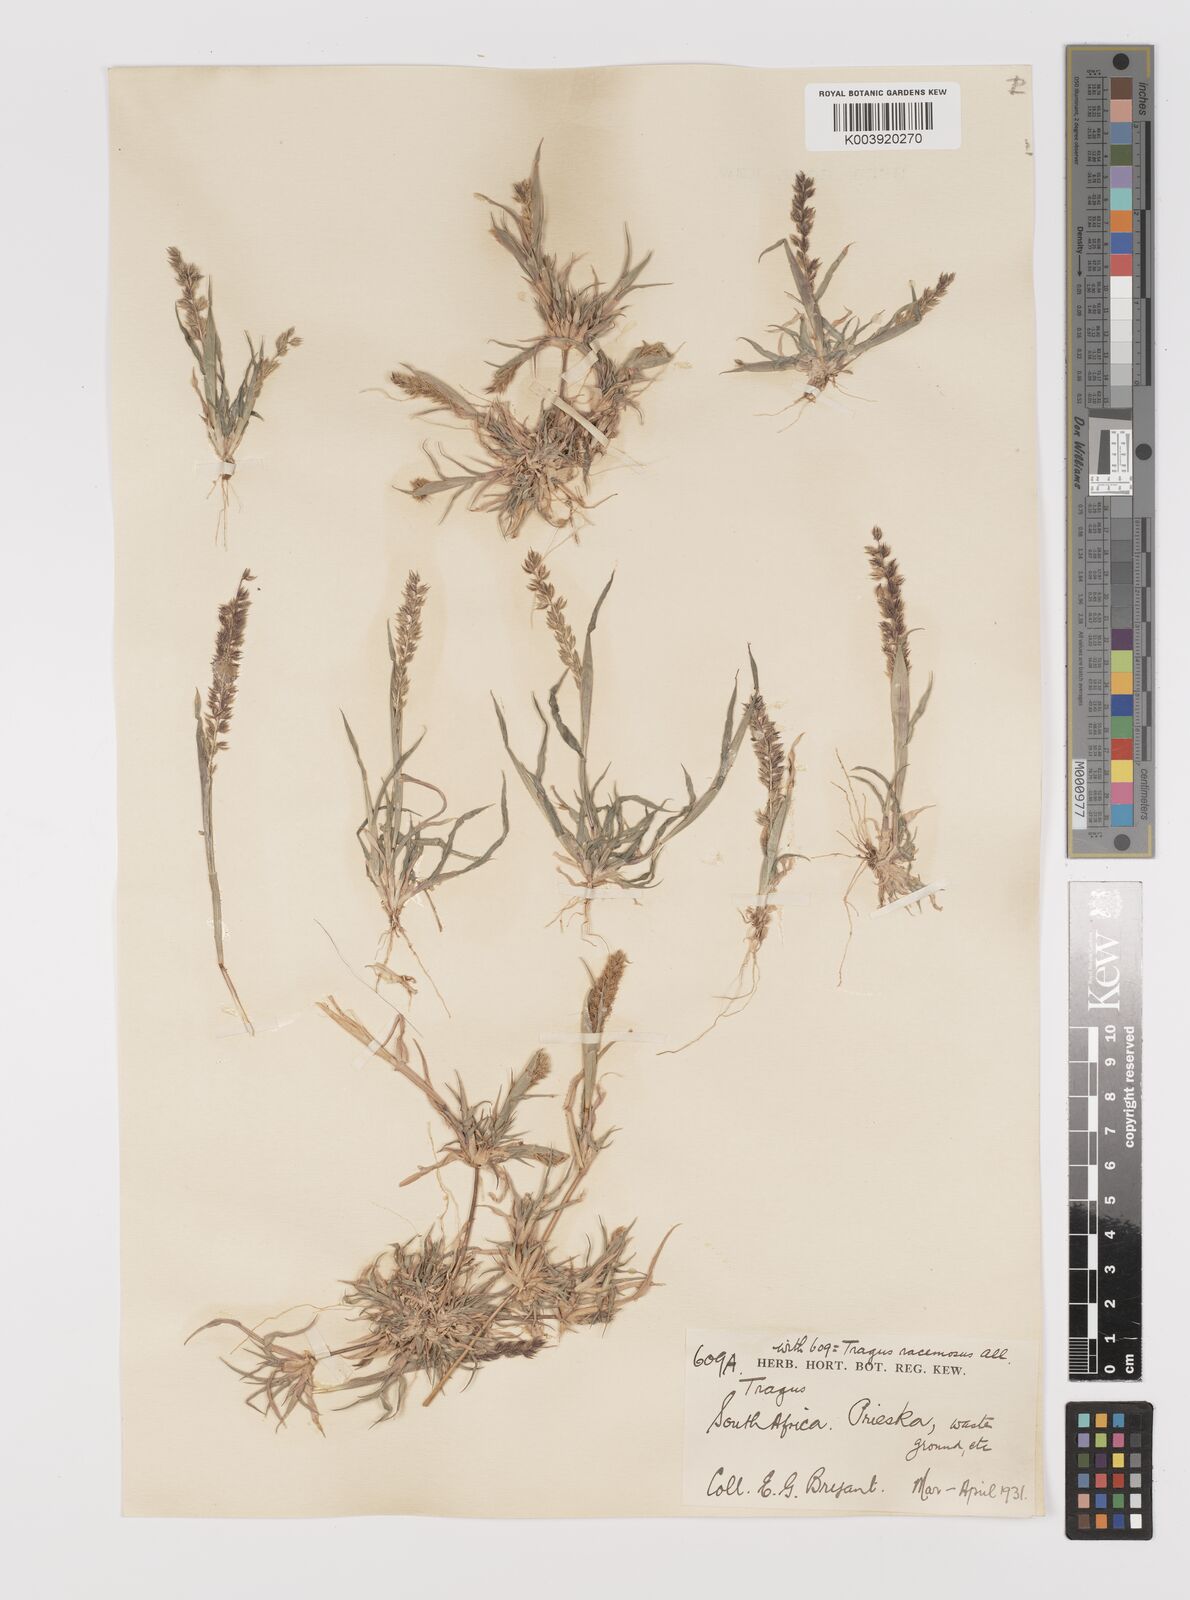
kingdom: Plantae
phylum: Tracheophyta
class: Liliopsida
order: Poales
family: Poaceae
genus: Tragus
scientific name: Tragus racemosus
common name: European bur-grass
